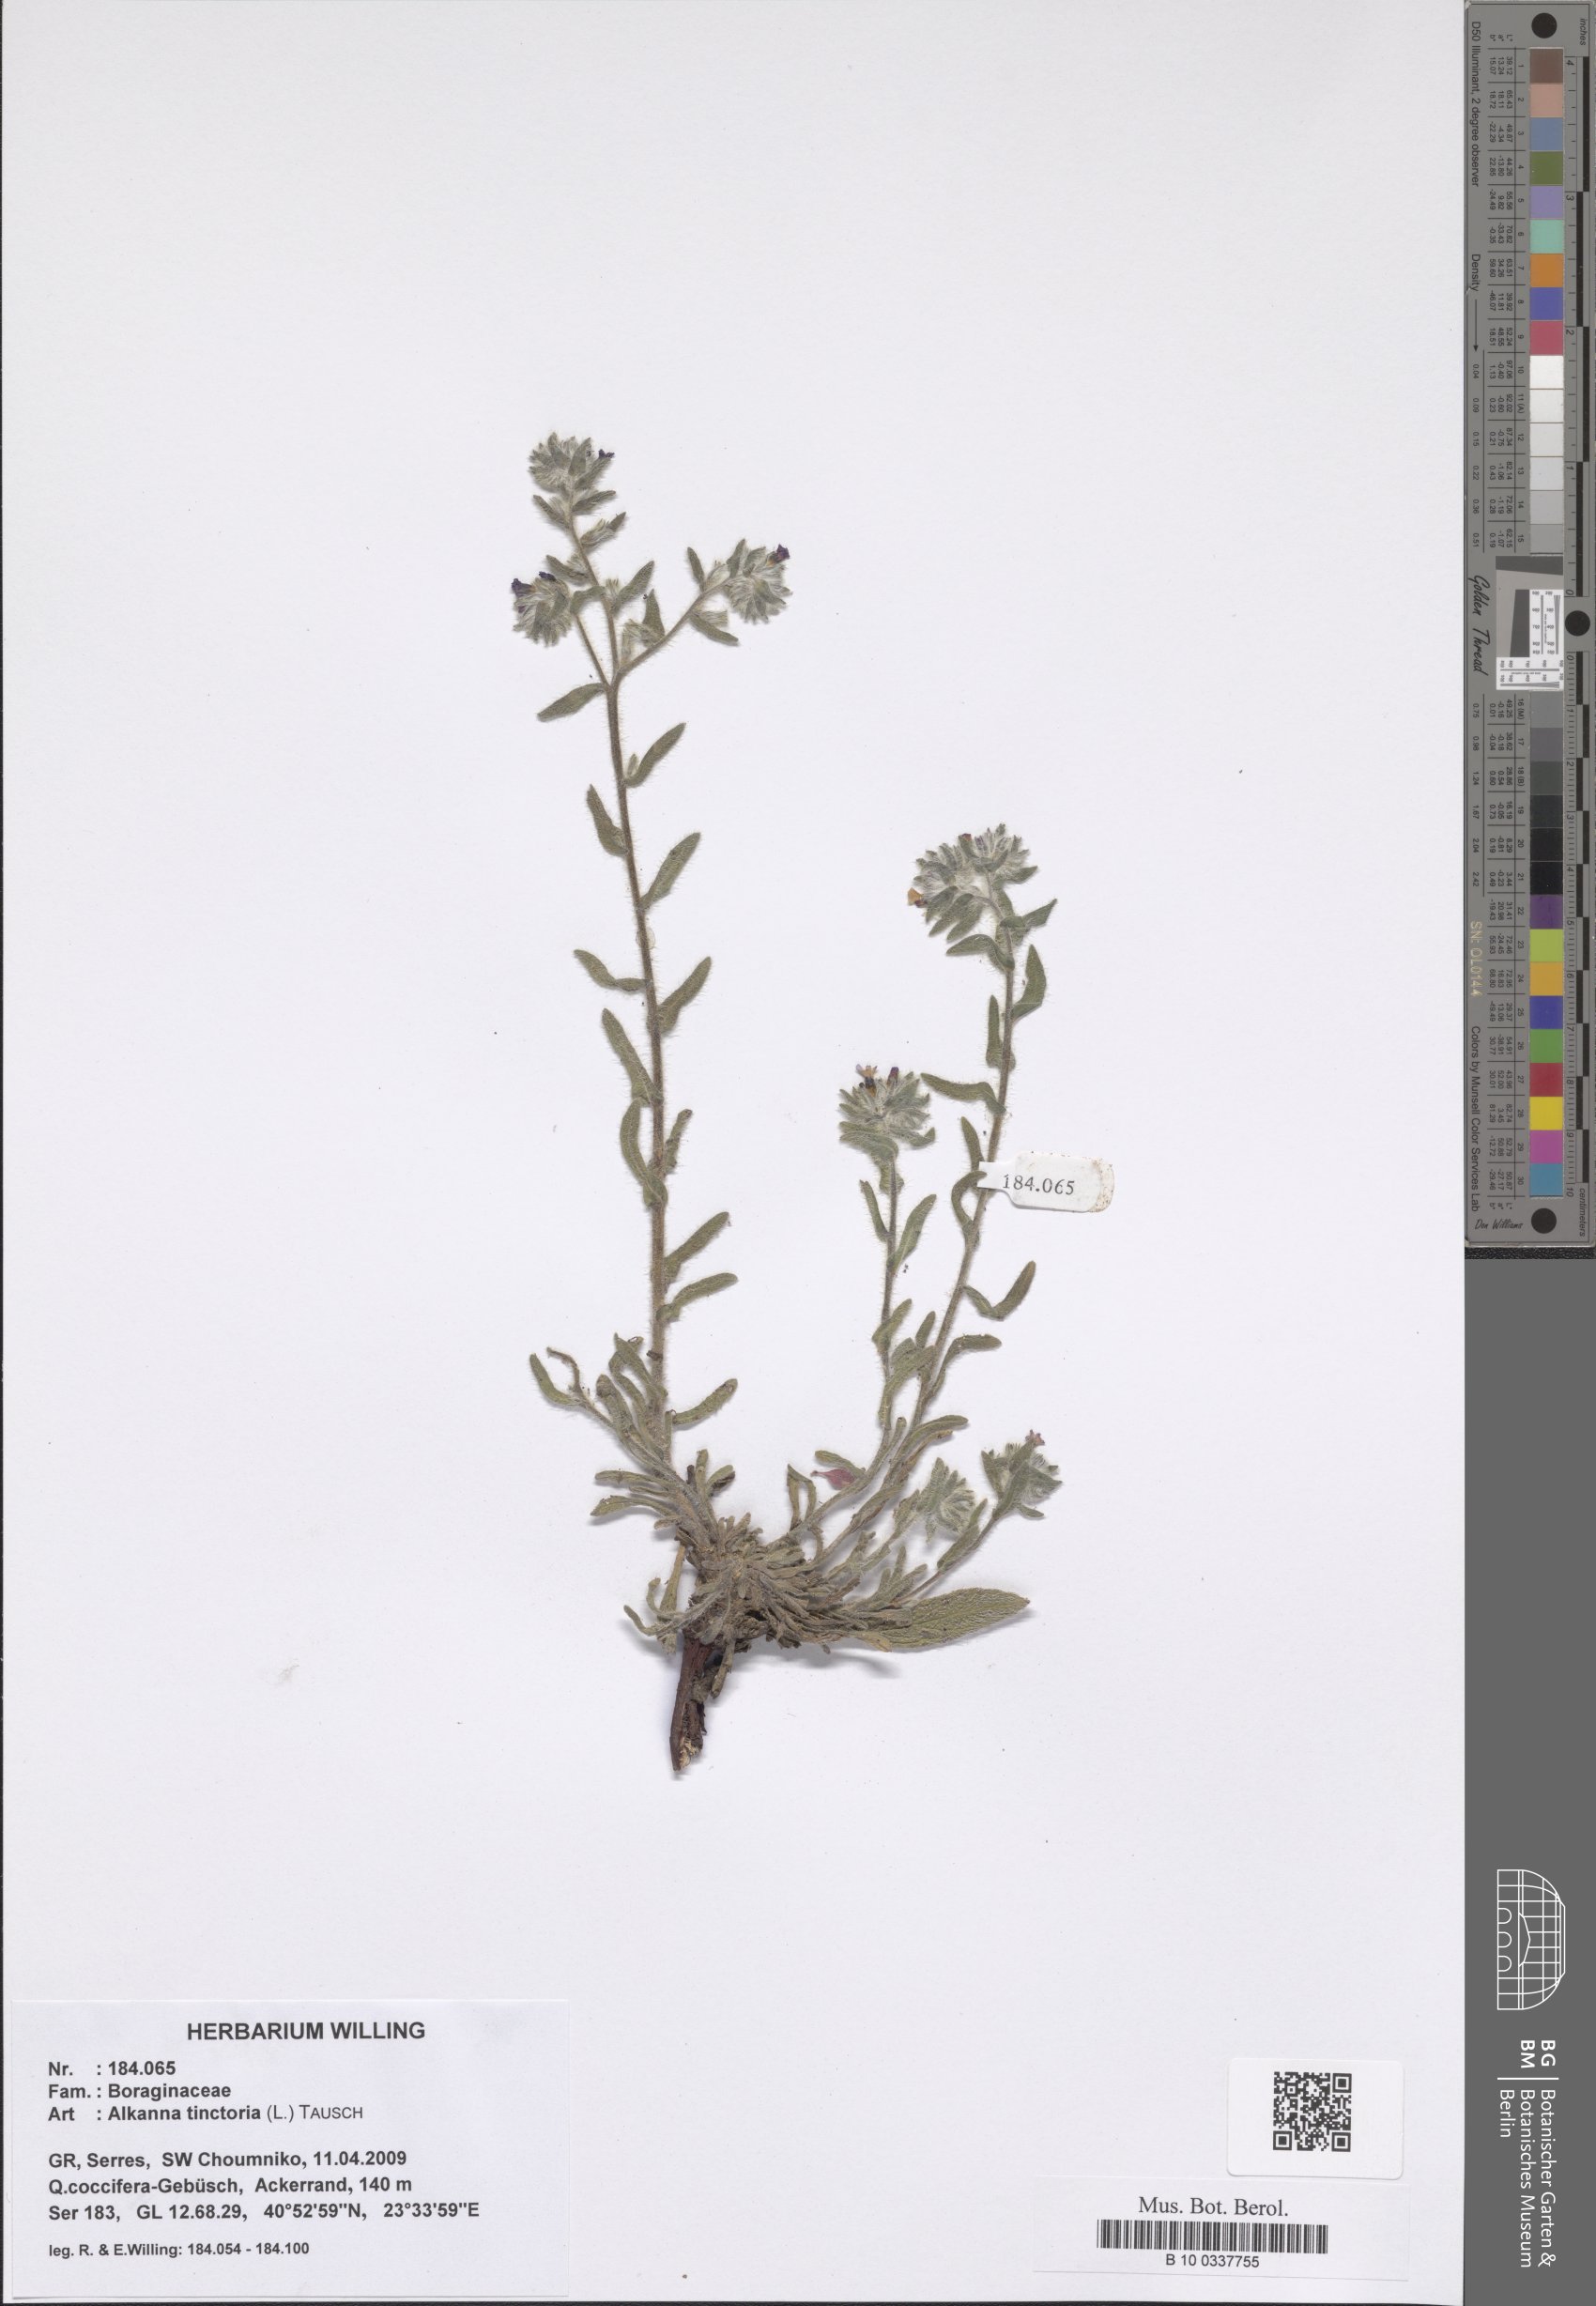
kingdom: Plantae
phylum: Tracheophyta
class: Magnoliopsida
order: Boraginales
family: Boraginaceae
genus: Alkanna
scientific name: Alkanna tinctoria
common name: Dyer's-alkanet
